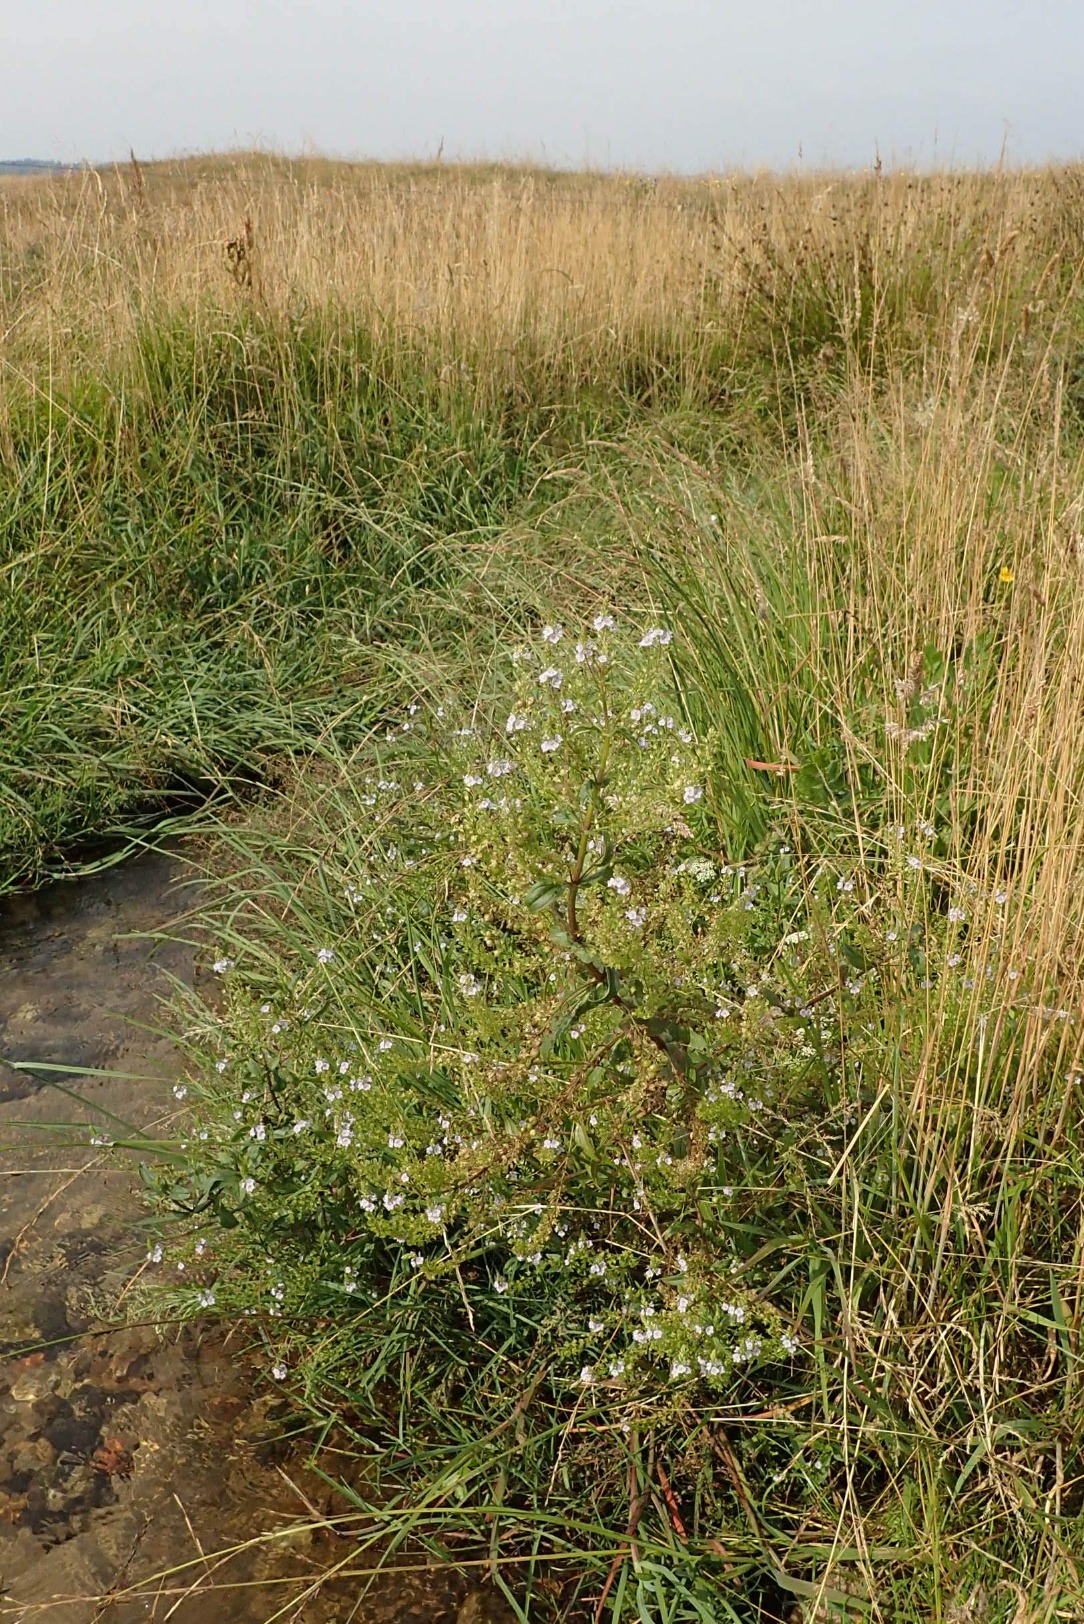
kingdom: Plantae
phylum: Tracheophyta
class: Magnoliopsida
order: Lamiales
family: Plantaginaceae
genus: Veronica
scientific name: Veronica anagallis-aquatica
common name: Lancetbladet ærenpris
